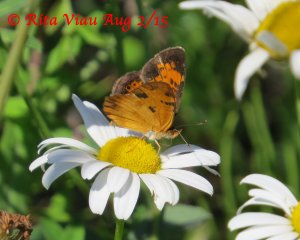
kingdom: Animalia
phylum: Arthropoda
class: Insecta
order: Lepidoptera
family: Nymphalidae
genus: Phyciodes
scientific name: Phyciodes tharos
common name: Northern Crescent
